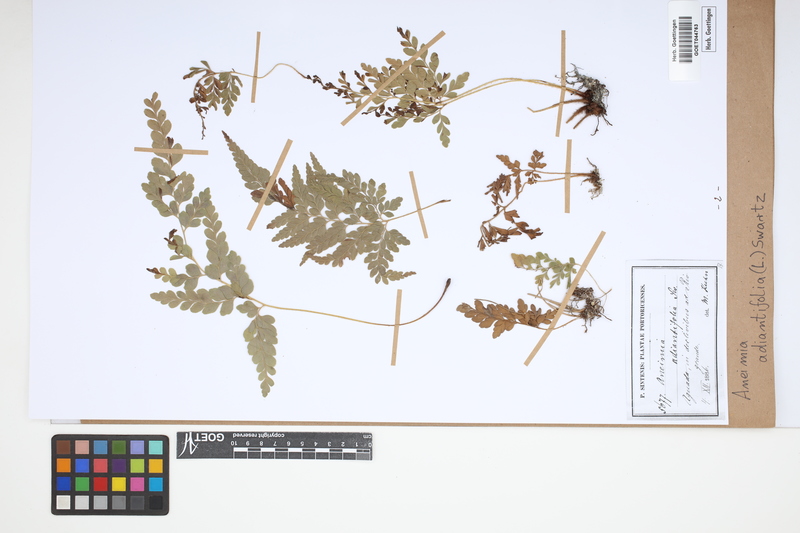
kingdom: Plantae
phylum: Tracheophyta
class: Polypodiopsida
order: Schizaeales
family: Anemiaceae
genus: Anemia
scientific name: Anemia adiantifolia
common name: Pine fern
